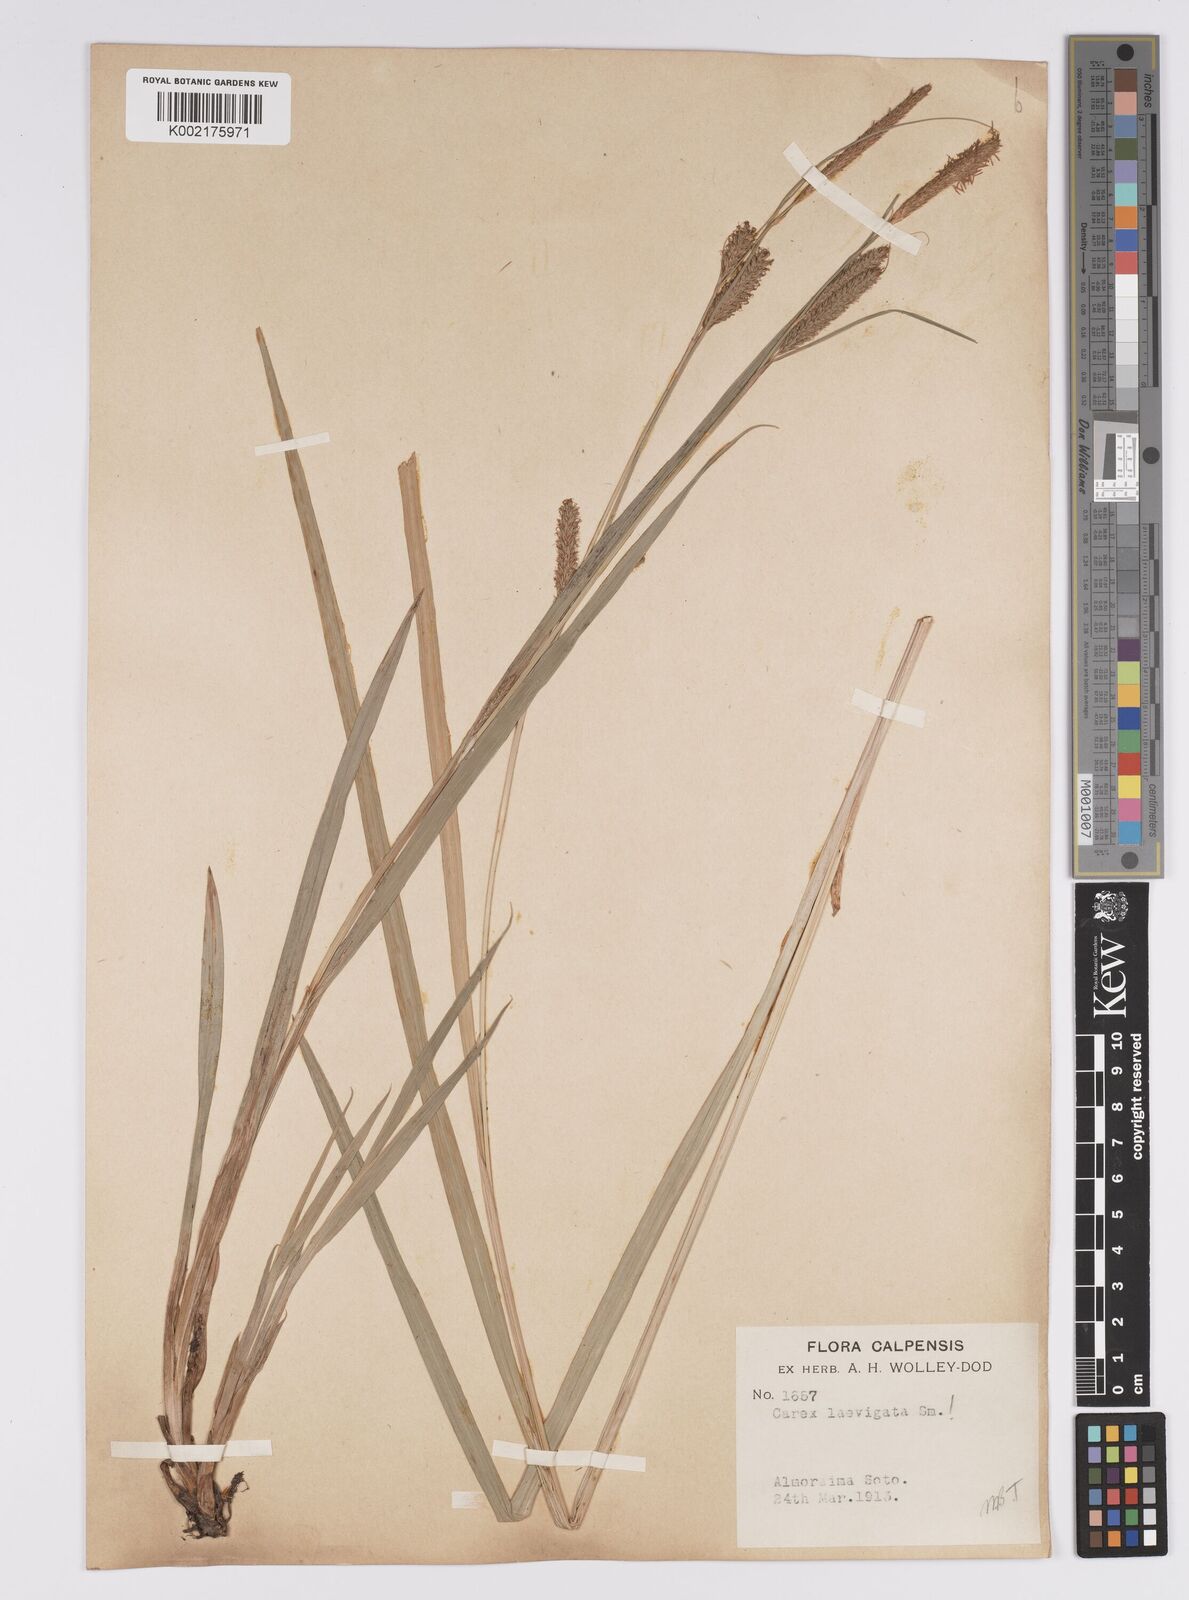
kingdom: Plantae
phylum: Tracheophyta
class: Liliopsida
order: Poales
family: Cyperaceae
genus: Carex
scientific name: Carex laevigata
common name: Smooth-stalked sedge
